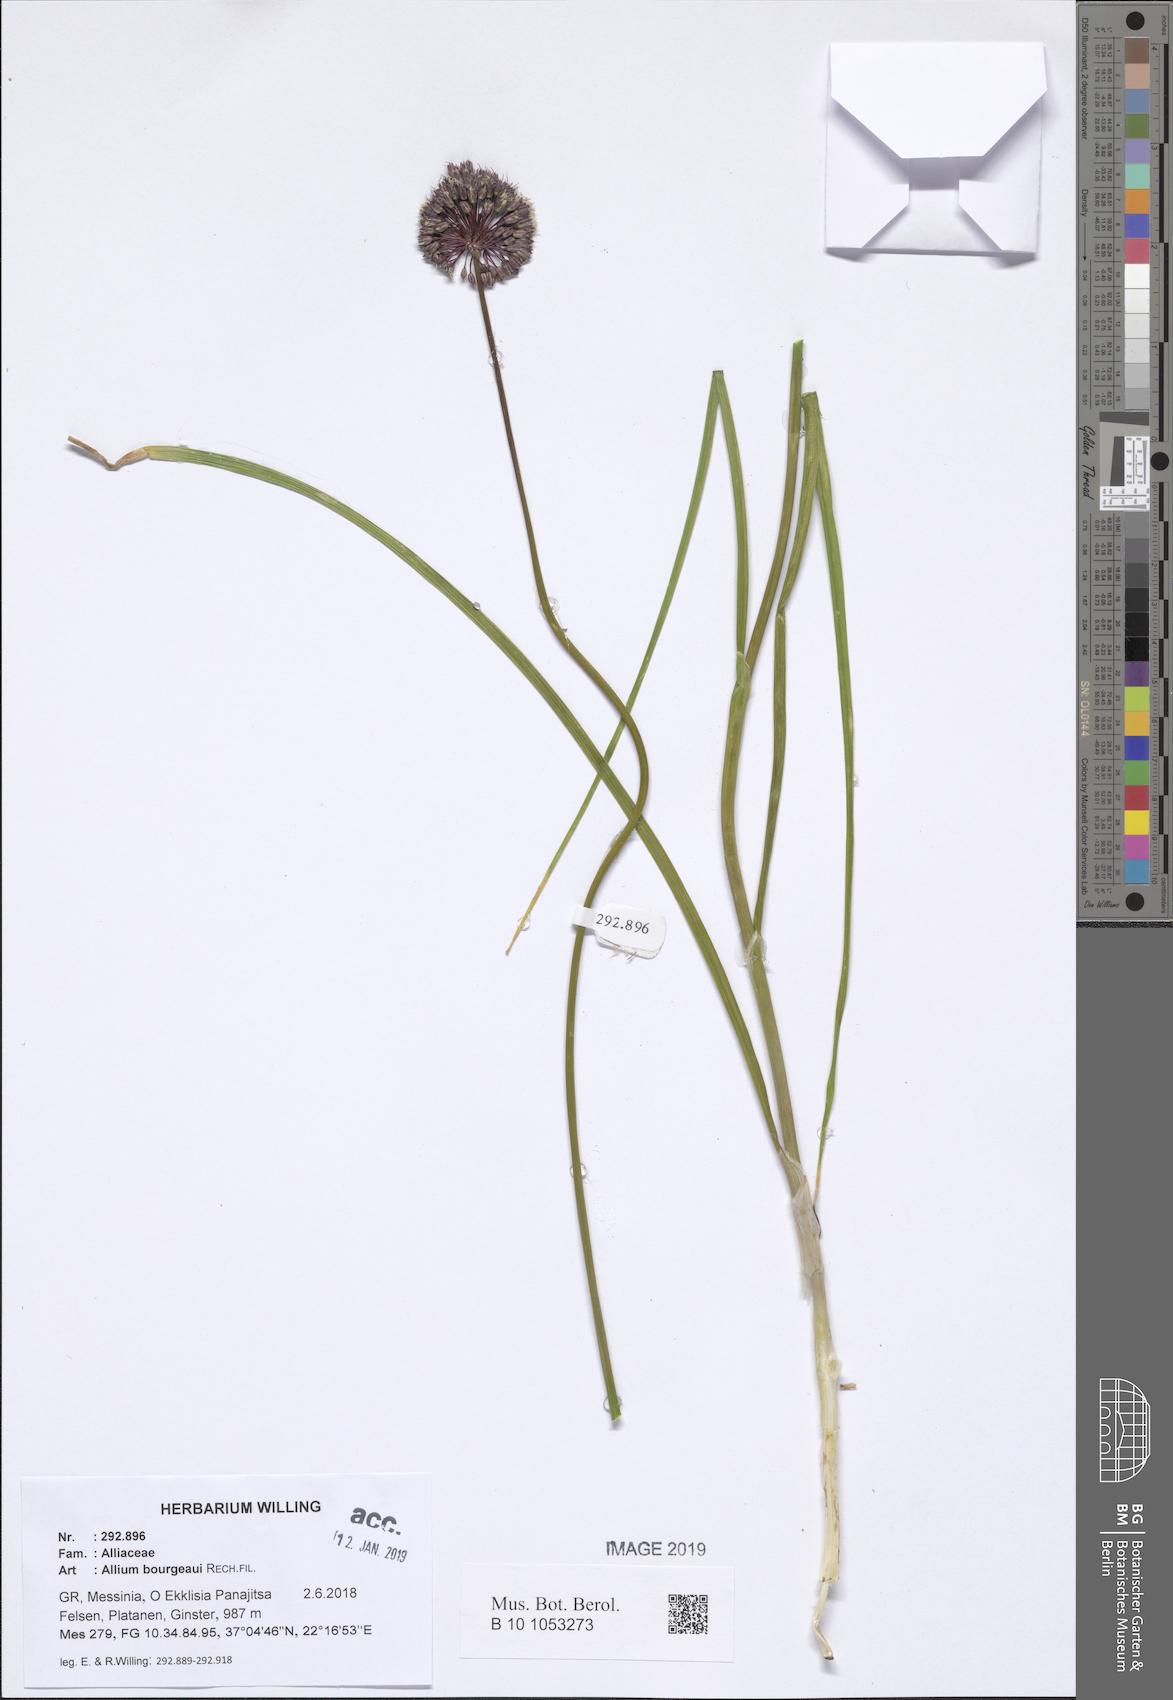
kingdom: Plantae
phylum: Tracheophyta
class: Liliopsida
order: Asparagales
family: Amaryllidaceae
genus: Allium
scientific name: Allium bourgeaui
